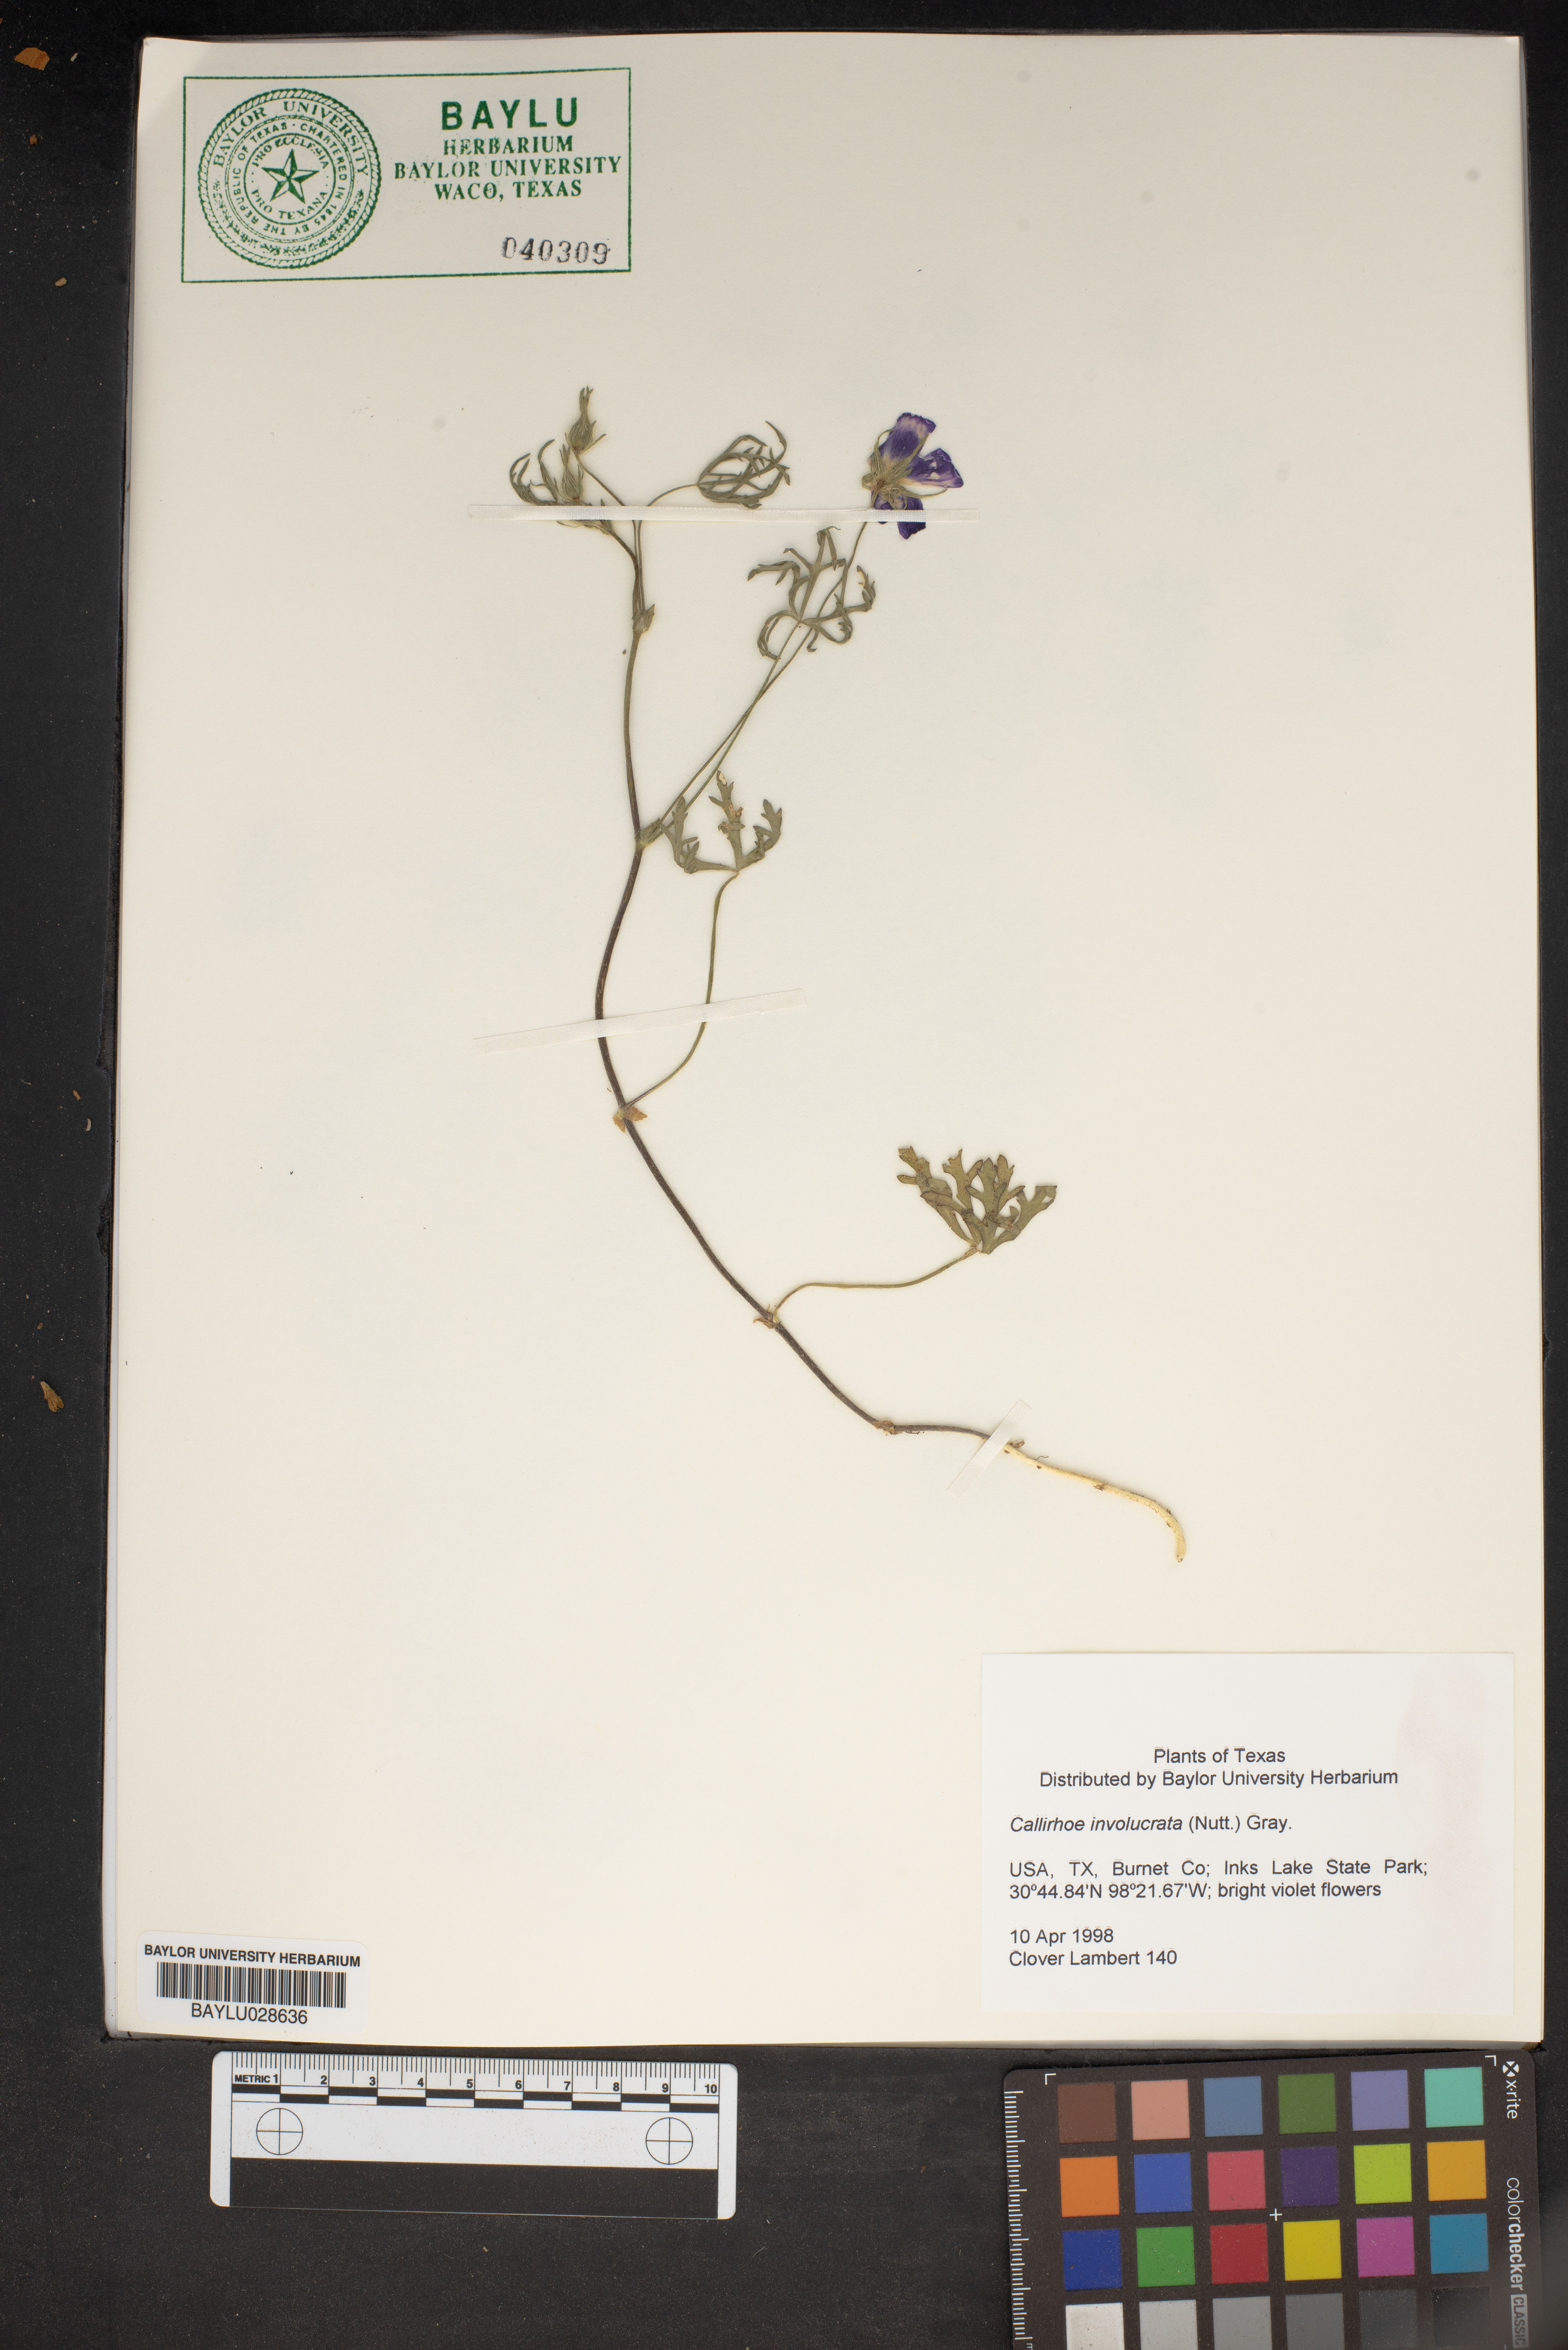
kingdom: Plantae
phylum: Tracheophyta
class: Magnoliopsida
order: Malvales
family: Malvaceae
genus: Callirhoe
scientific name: Callirhoe involucrata
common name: Purple poppy-mallow
